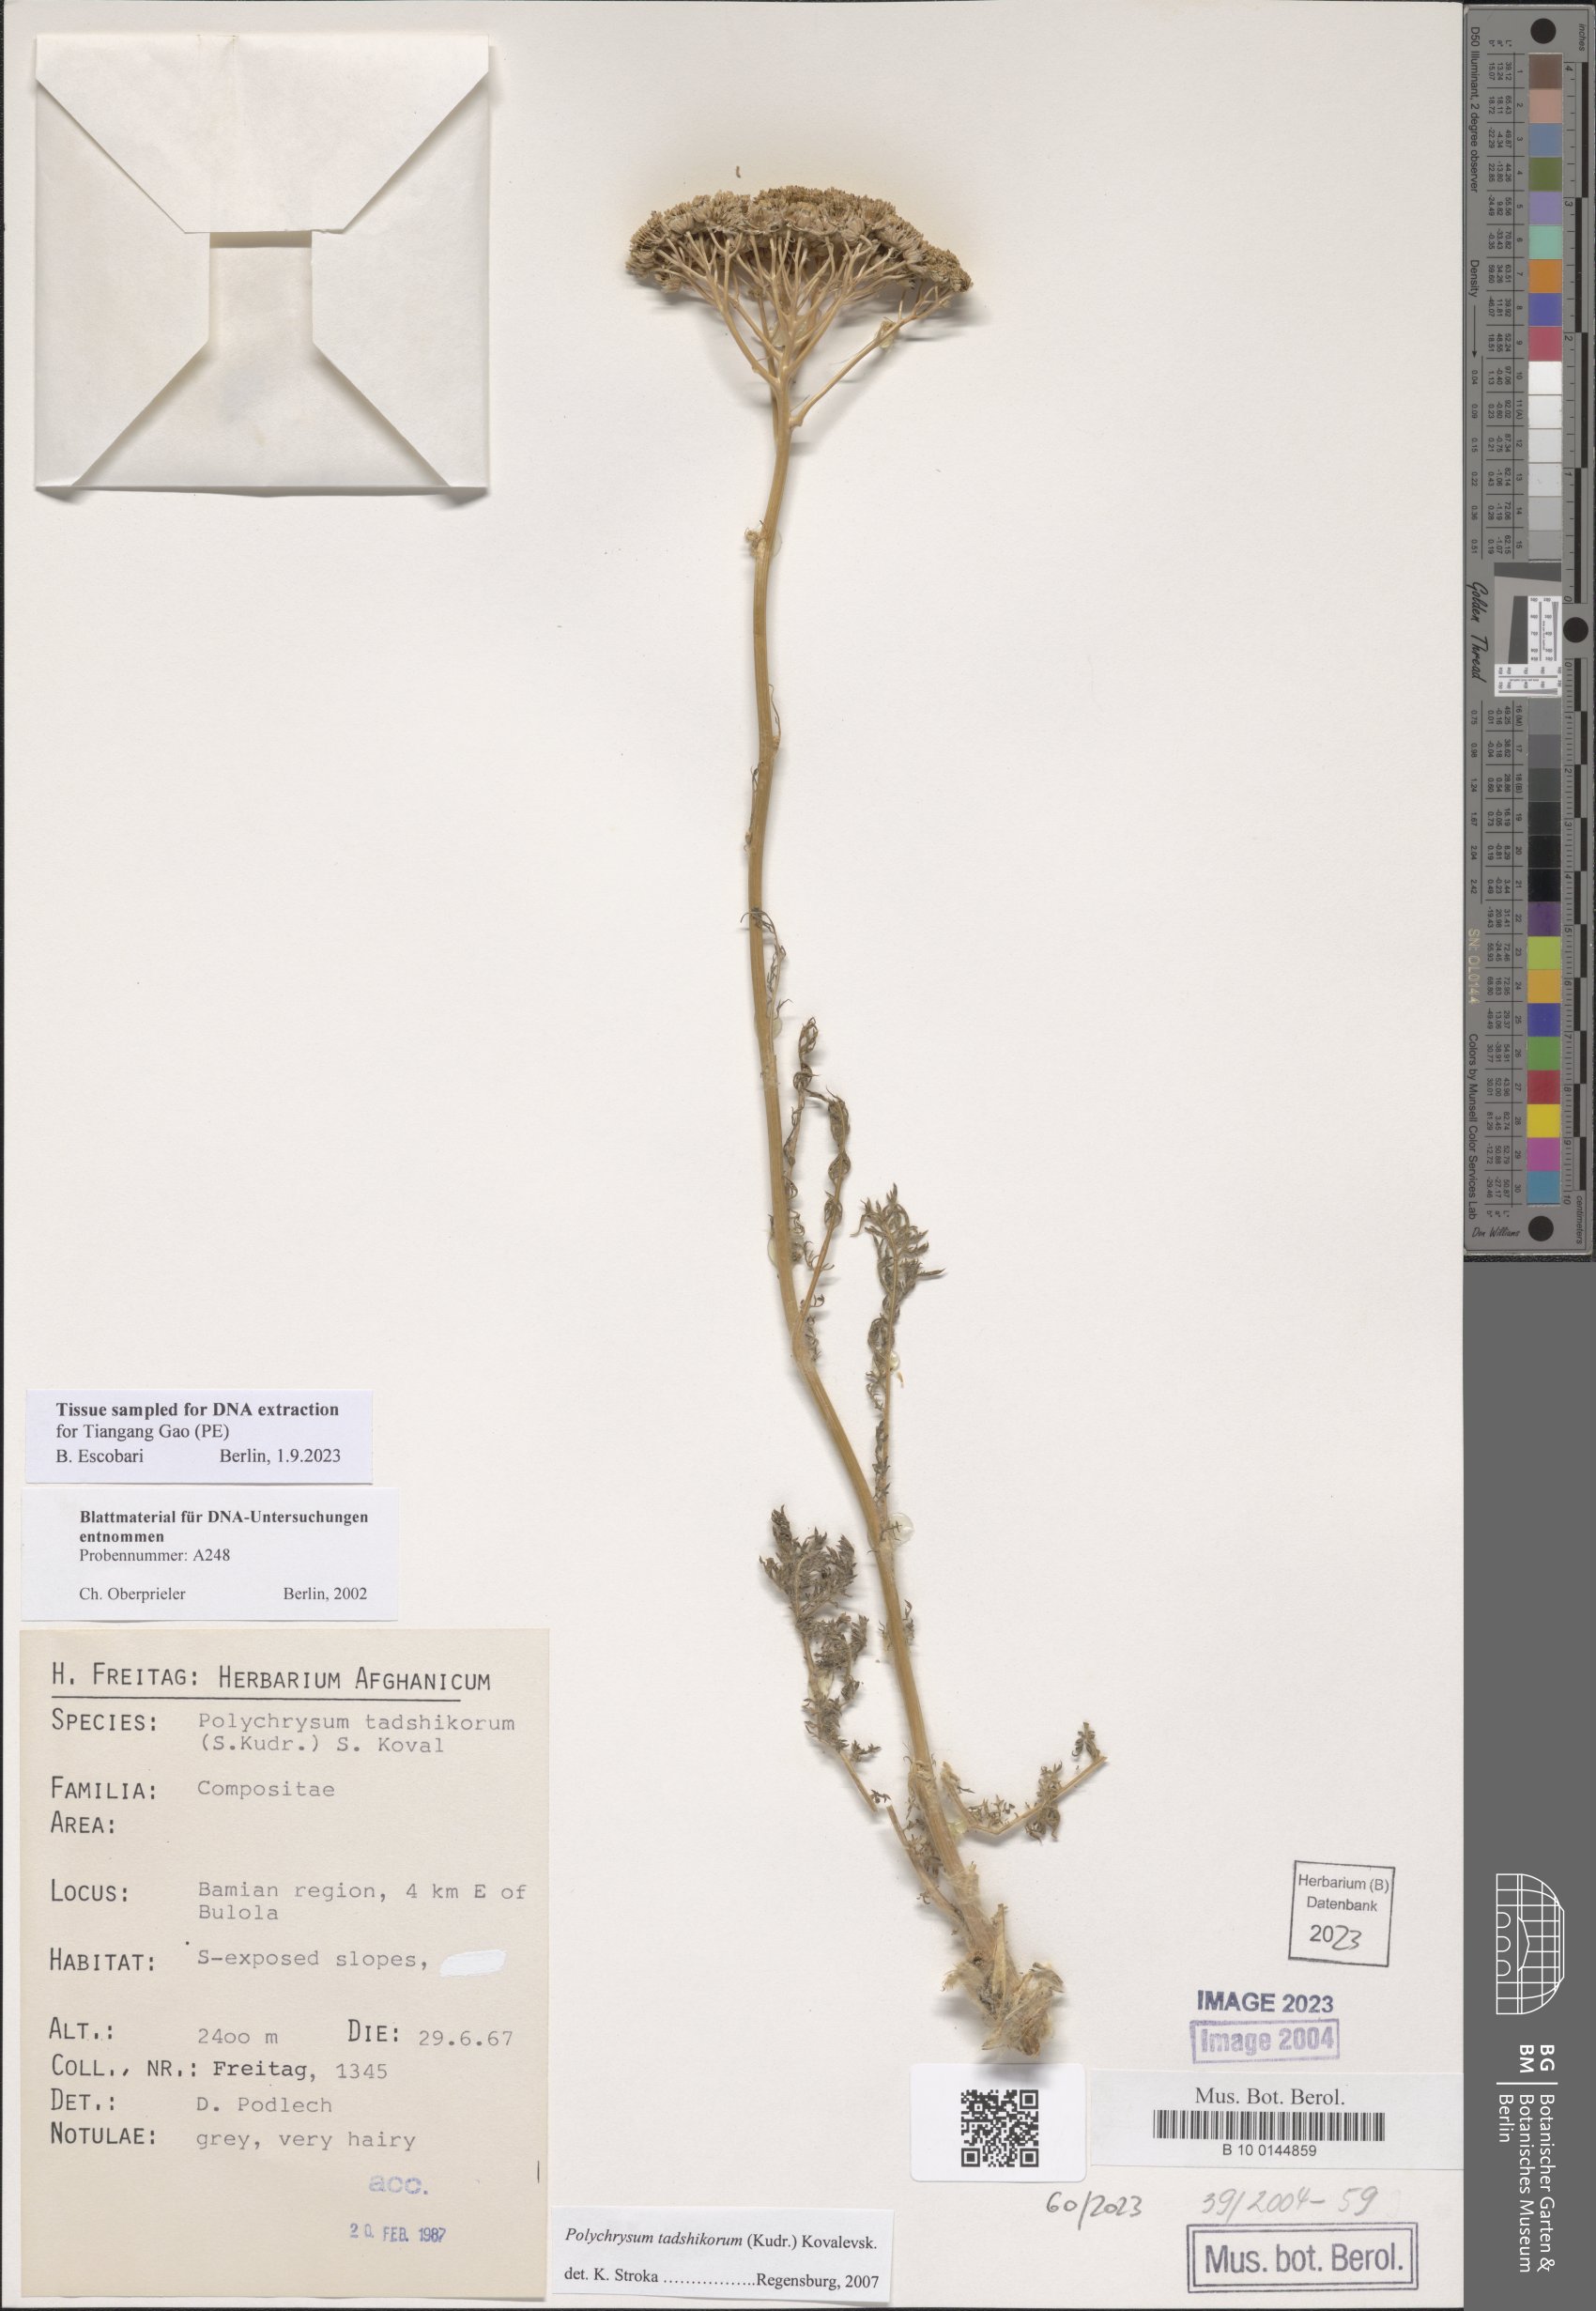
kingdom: Plantae
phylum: Tracheophyta
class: Magnoliopsida
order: Asterales
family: Asteraceae
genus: Polychrysum
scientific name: Polychrysum tadshikorum
